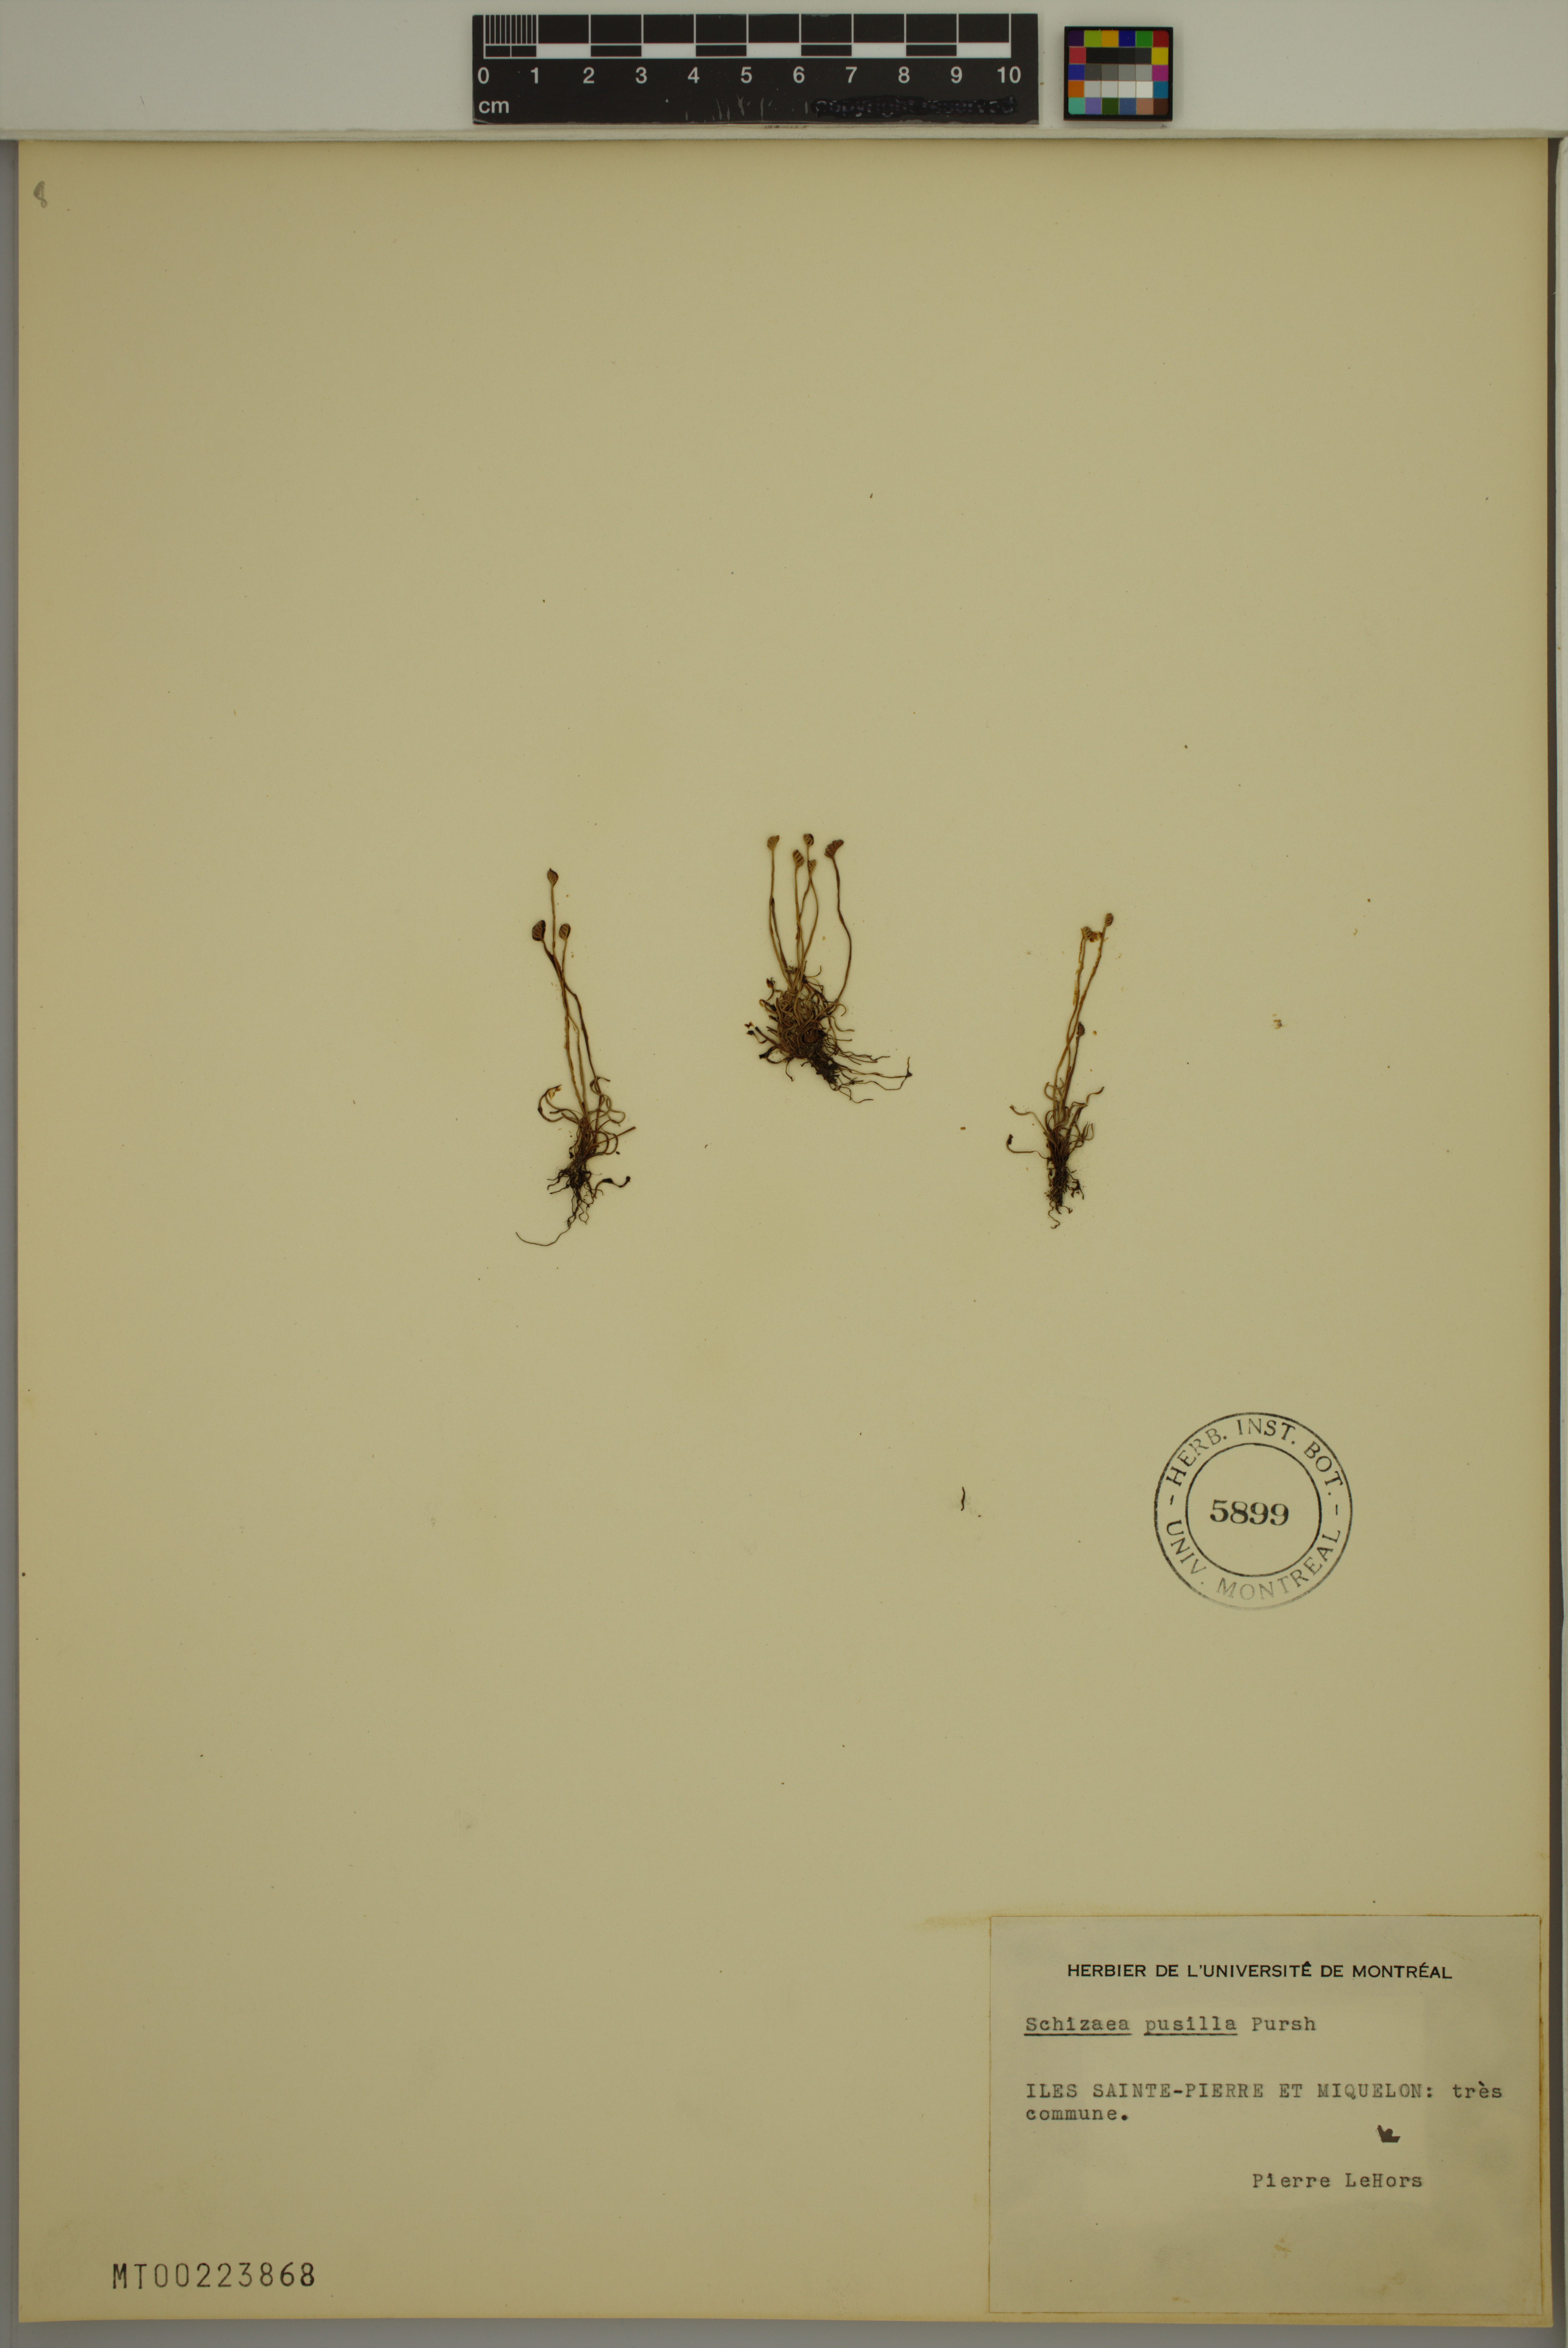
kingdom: Plantae
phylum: Tracheophyta
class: Polypodiopsida
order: Schizaeales
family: Schizaeaceae
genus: Schizaea
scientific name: Schizaea pusilla
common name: Curly-grass fern
